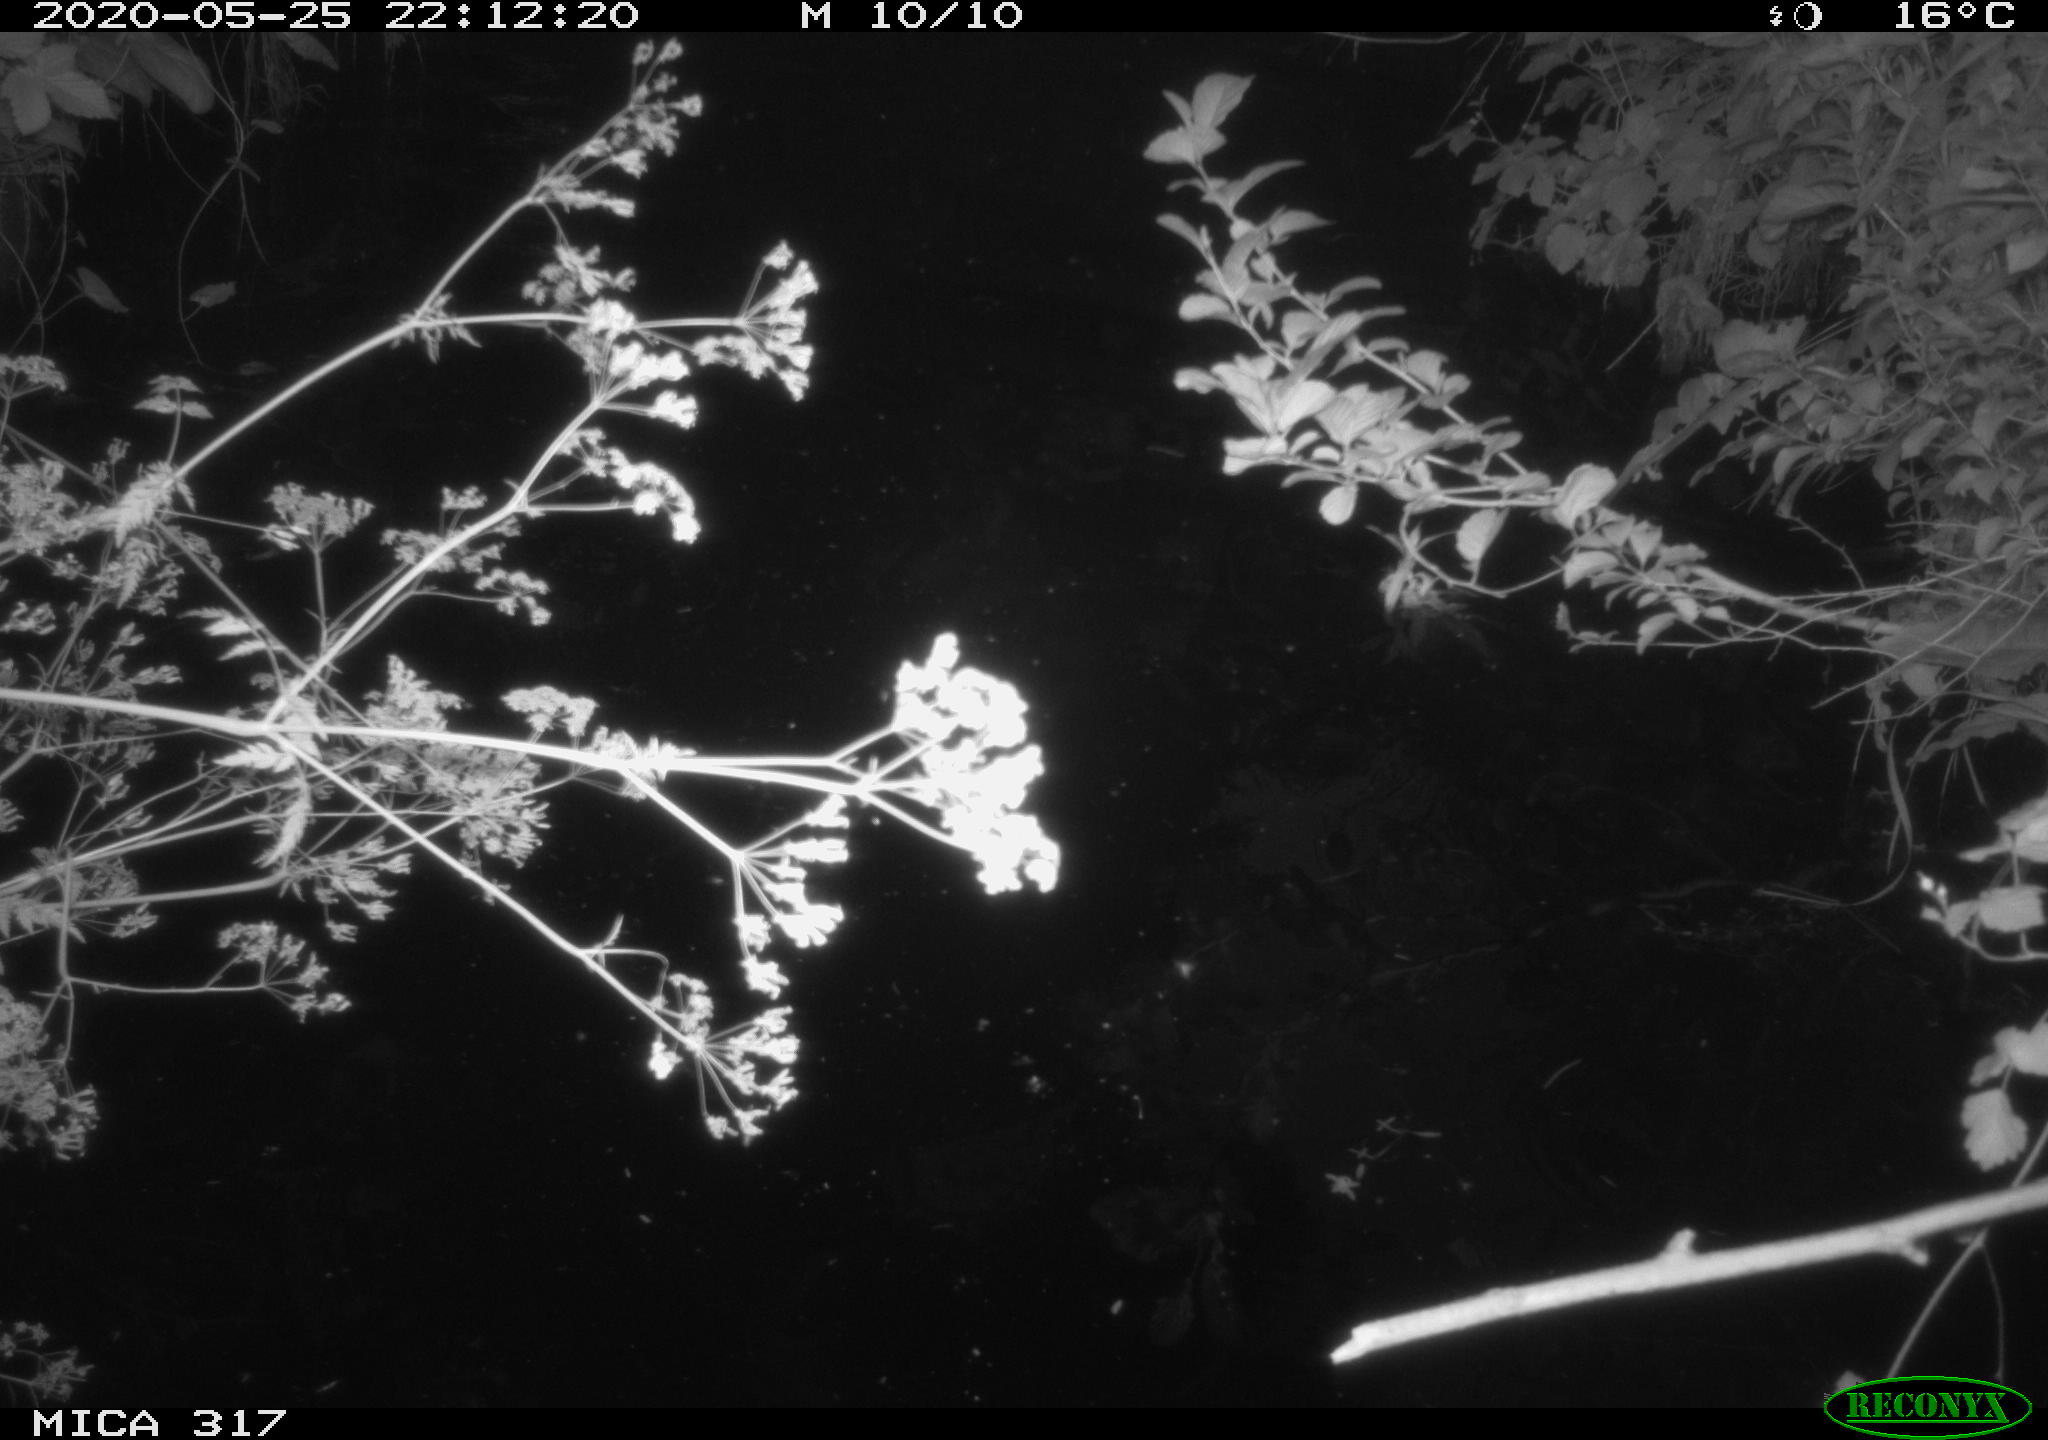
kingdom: Animalia
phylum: Chordata
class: Aves
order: Anseriformes
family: Anatidae
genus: Anas
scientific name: Anas platyrhynchos
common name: Mallard
